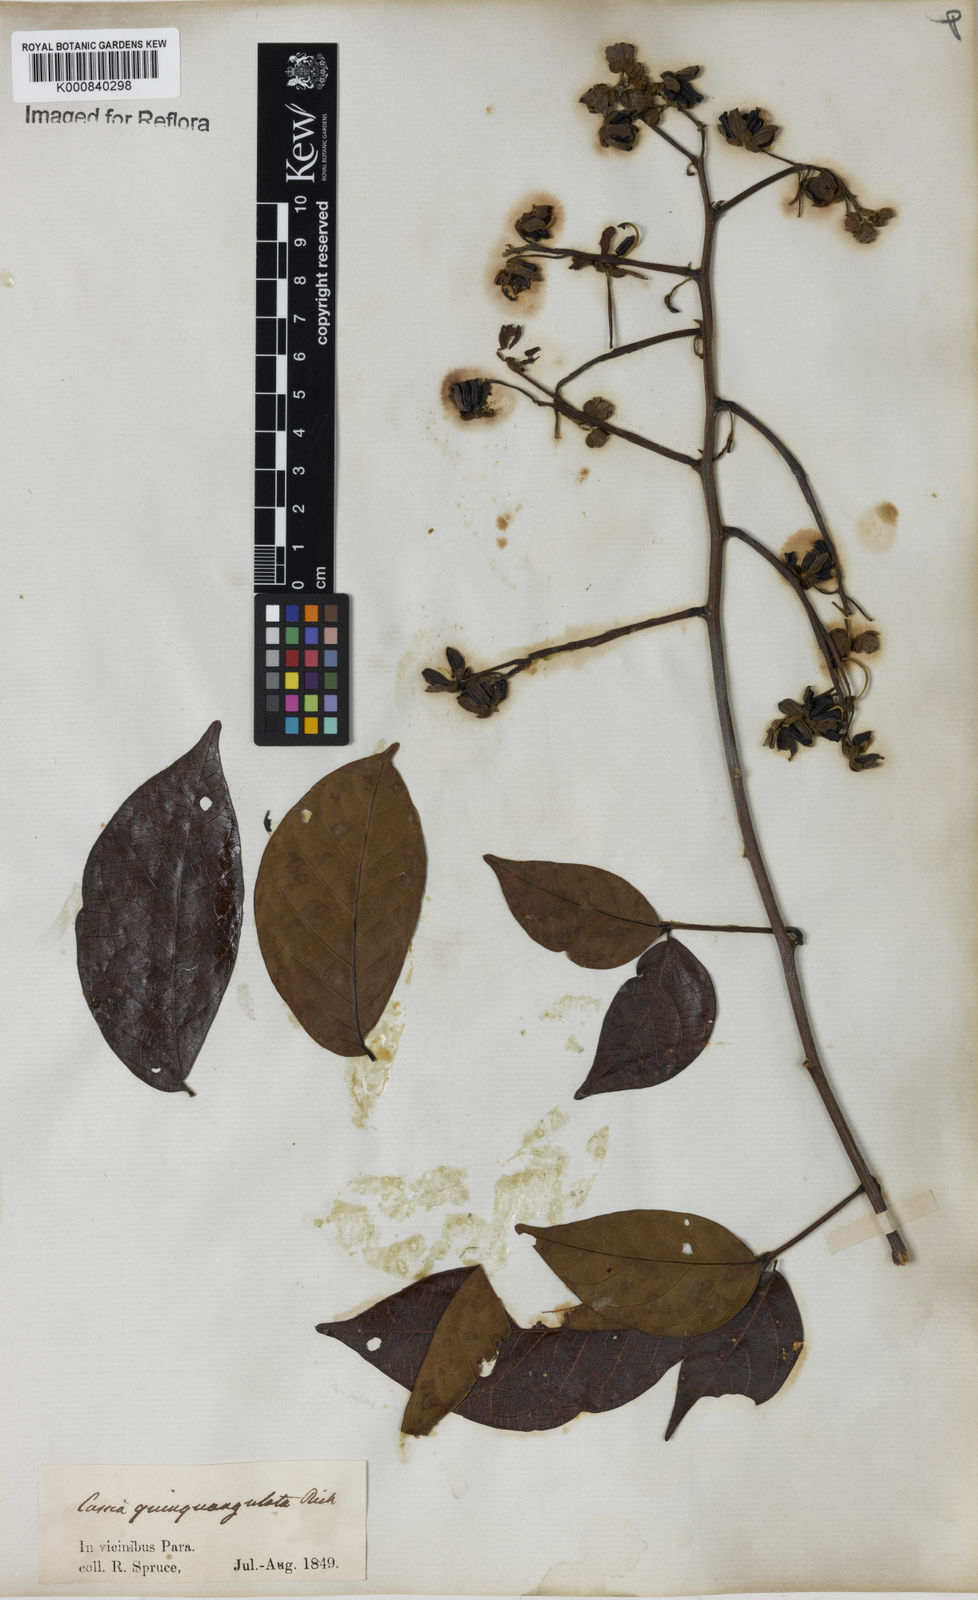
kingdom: Plantae
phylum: Tracheophyta
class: Magnoliopsida
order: Fabales
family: Fabaceae
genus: Senna
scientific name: Senna quinquangulata
